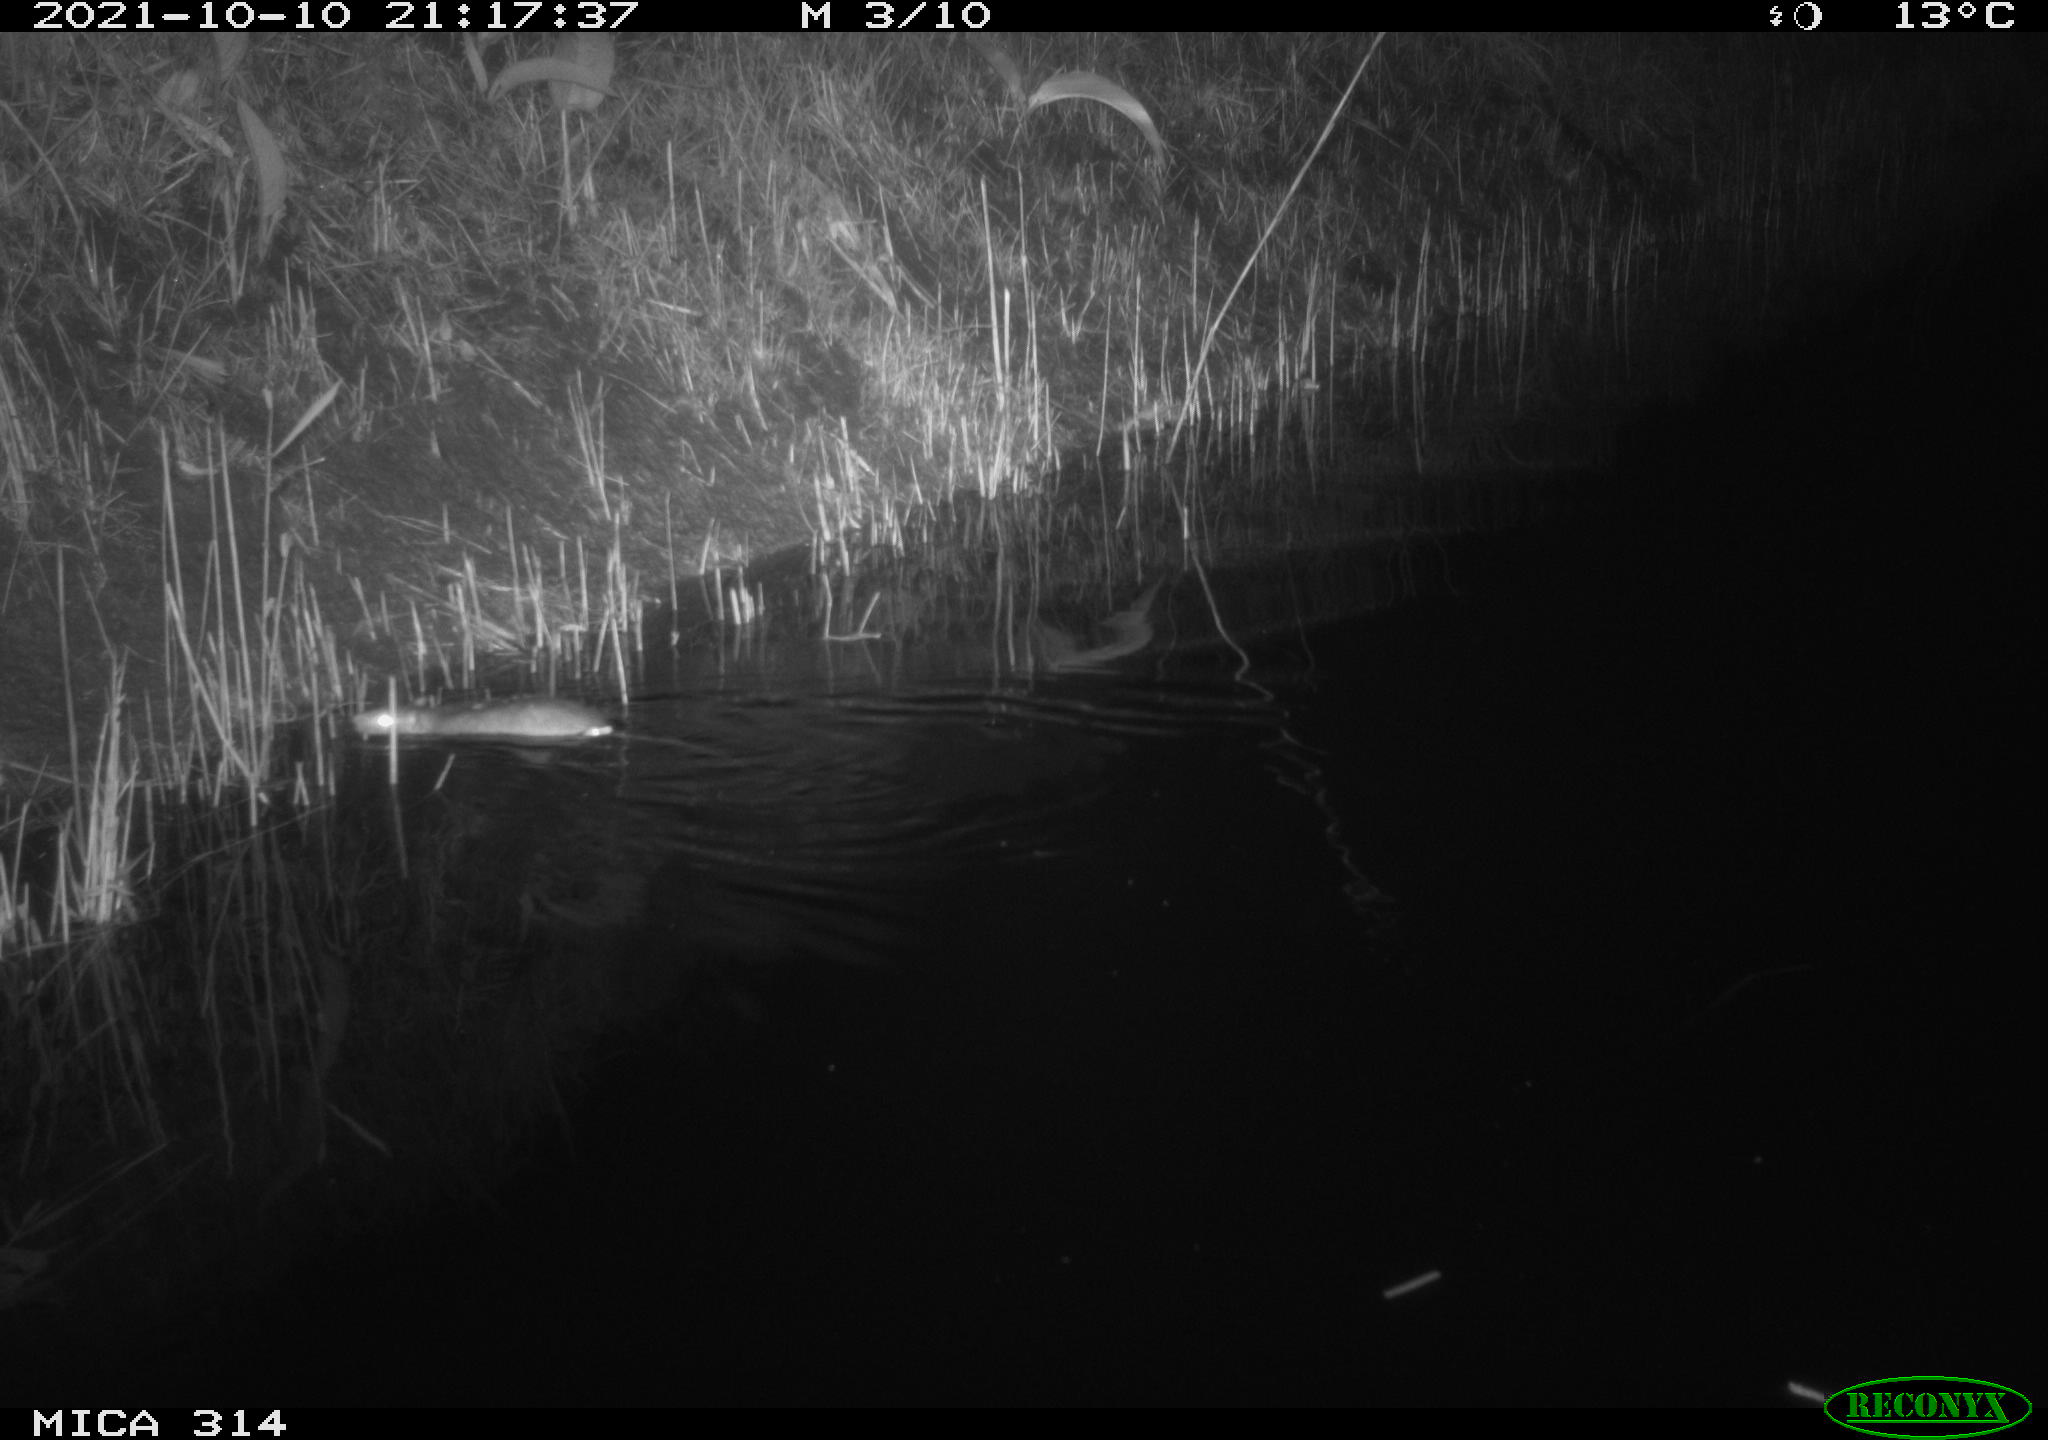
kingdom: Animalia
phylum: Chordata
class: Mammalia
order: Rodentia
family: Muridae
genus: Rattus
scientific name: Rattus norvegicus
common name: Brown rat
